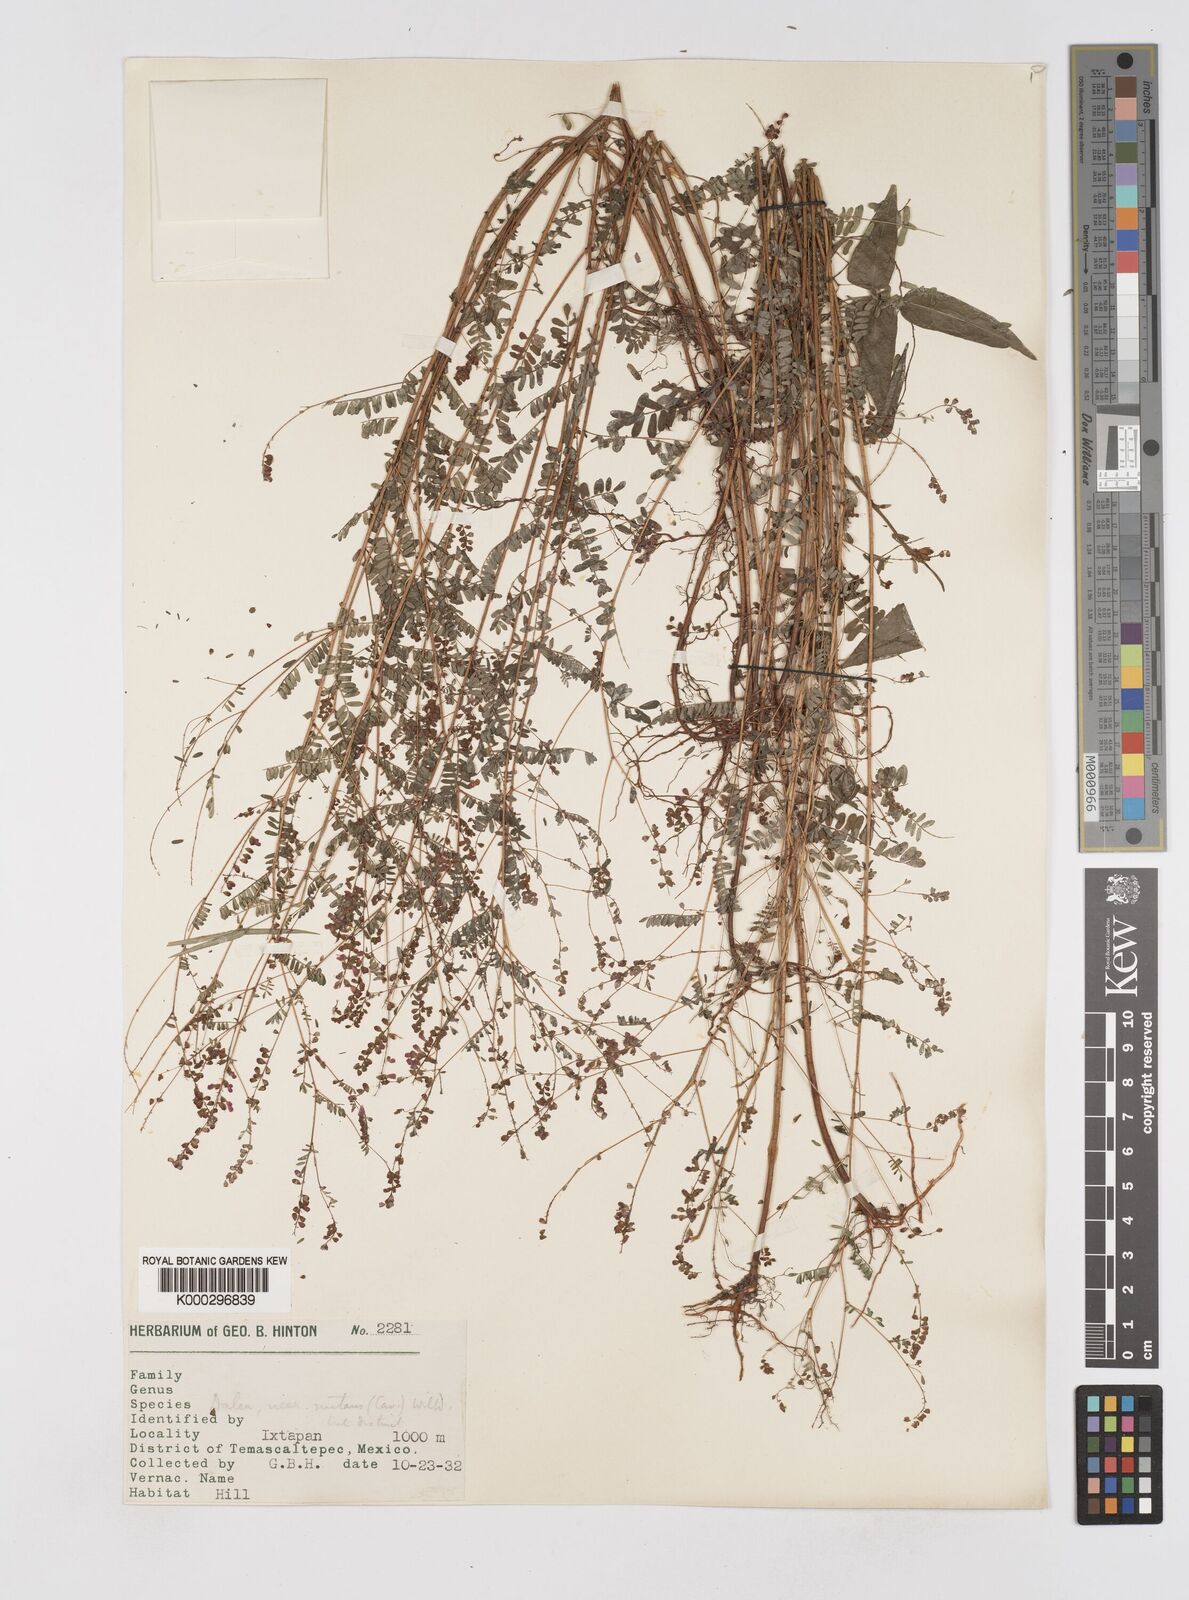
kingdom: Plantae
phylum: Tracheophyta
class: Magnoliopsida
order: Fabales
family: Fabaceae
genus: Marina
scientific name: Marina nutans
